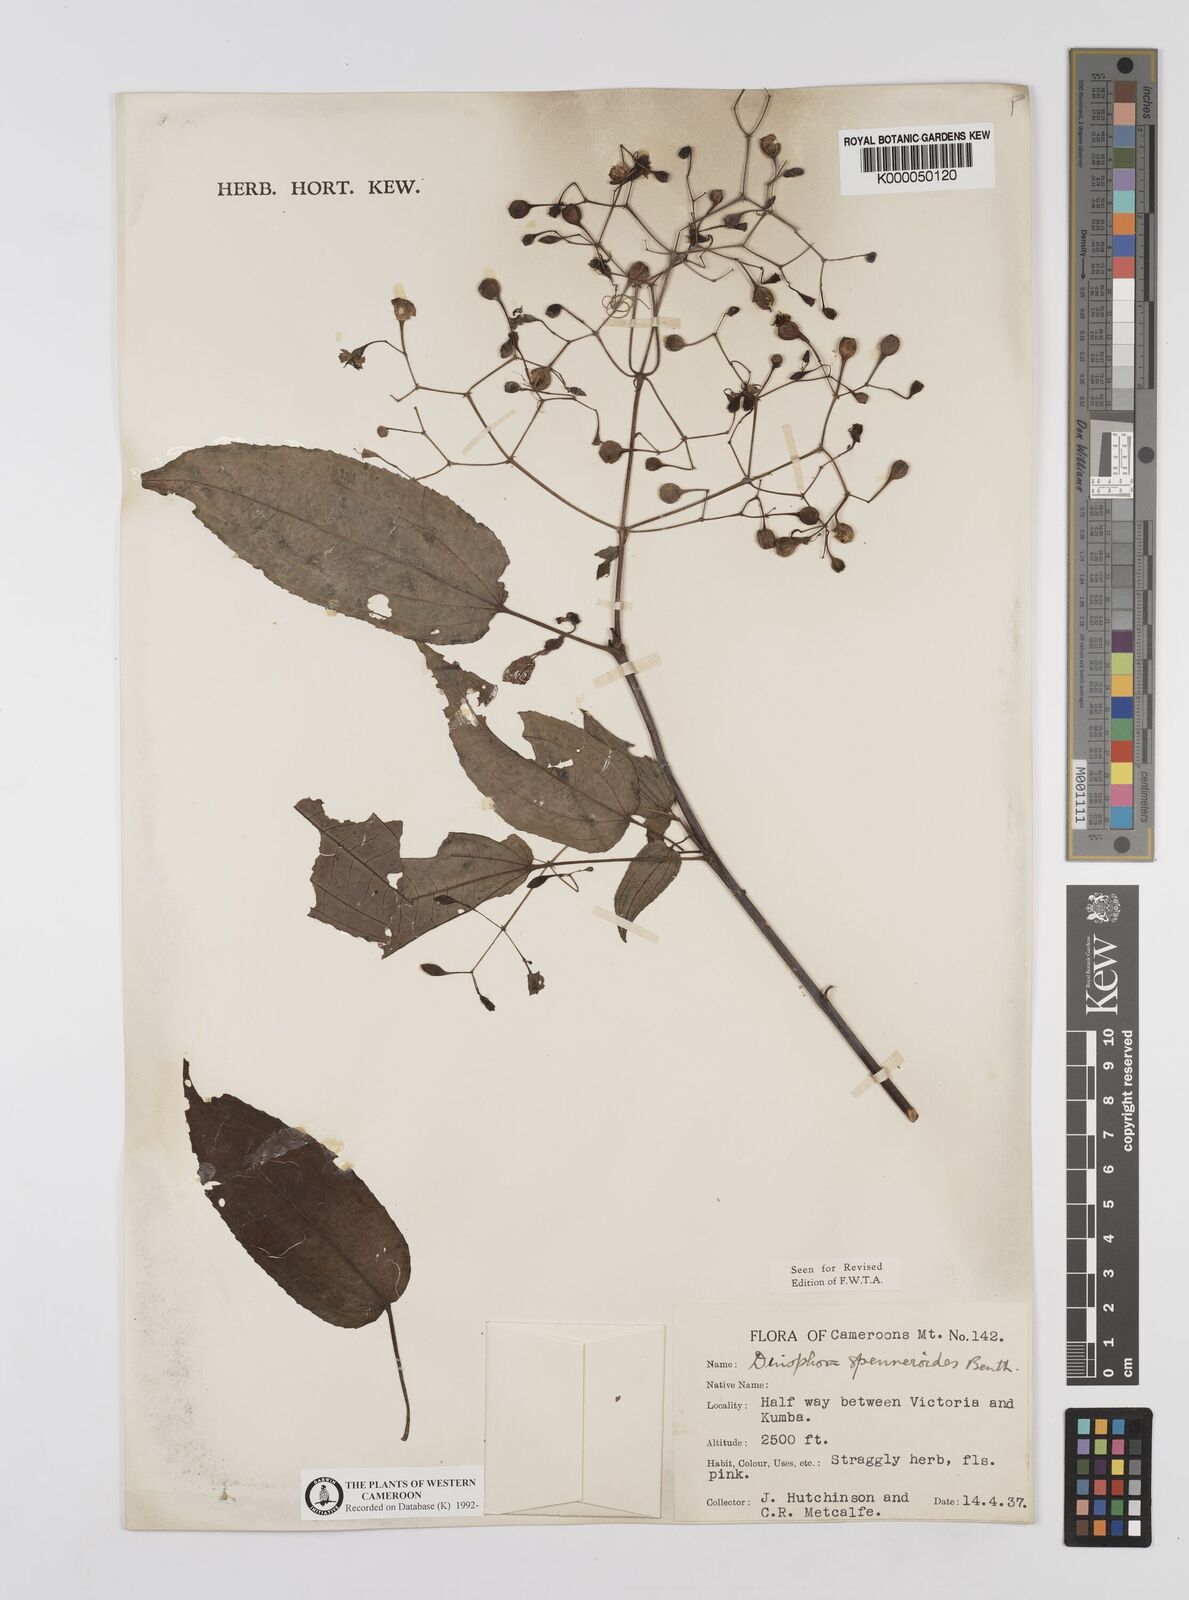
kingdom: Plantae
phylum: Tracheophyta
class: Magnoliopsida
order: Myrtales
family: Melastomataceae
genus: Dinophora
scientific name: Dinophora spenneroides
